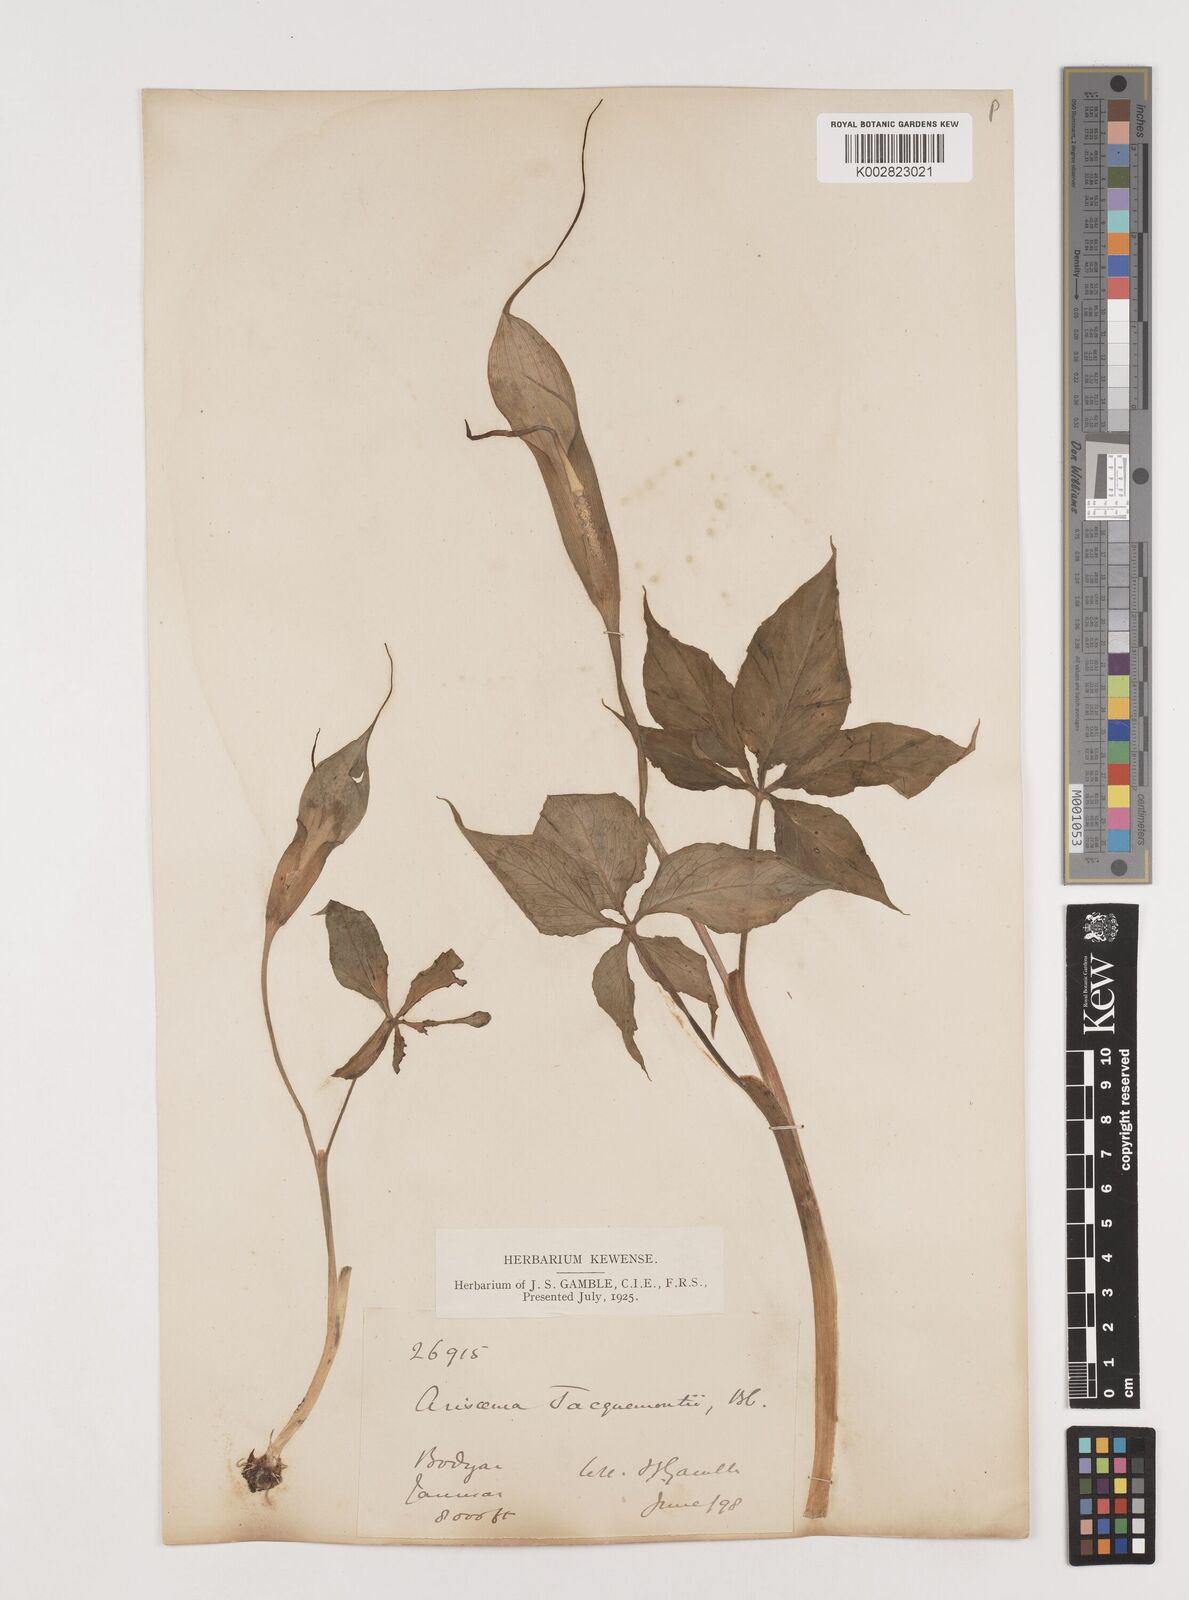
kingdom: Plantae
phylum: Tracheophyta
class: Liliopsida
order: Alismatales
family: Araceae
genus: Arisaema
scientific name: Arisaema jacquemontii
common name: Jacquemont's cobra-lily
